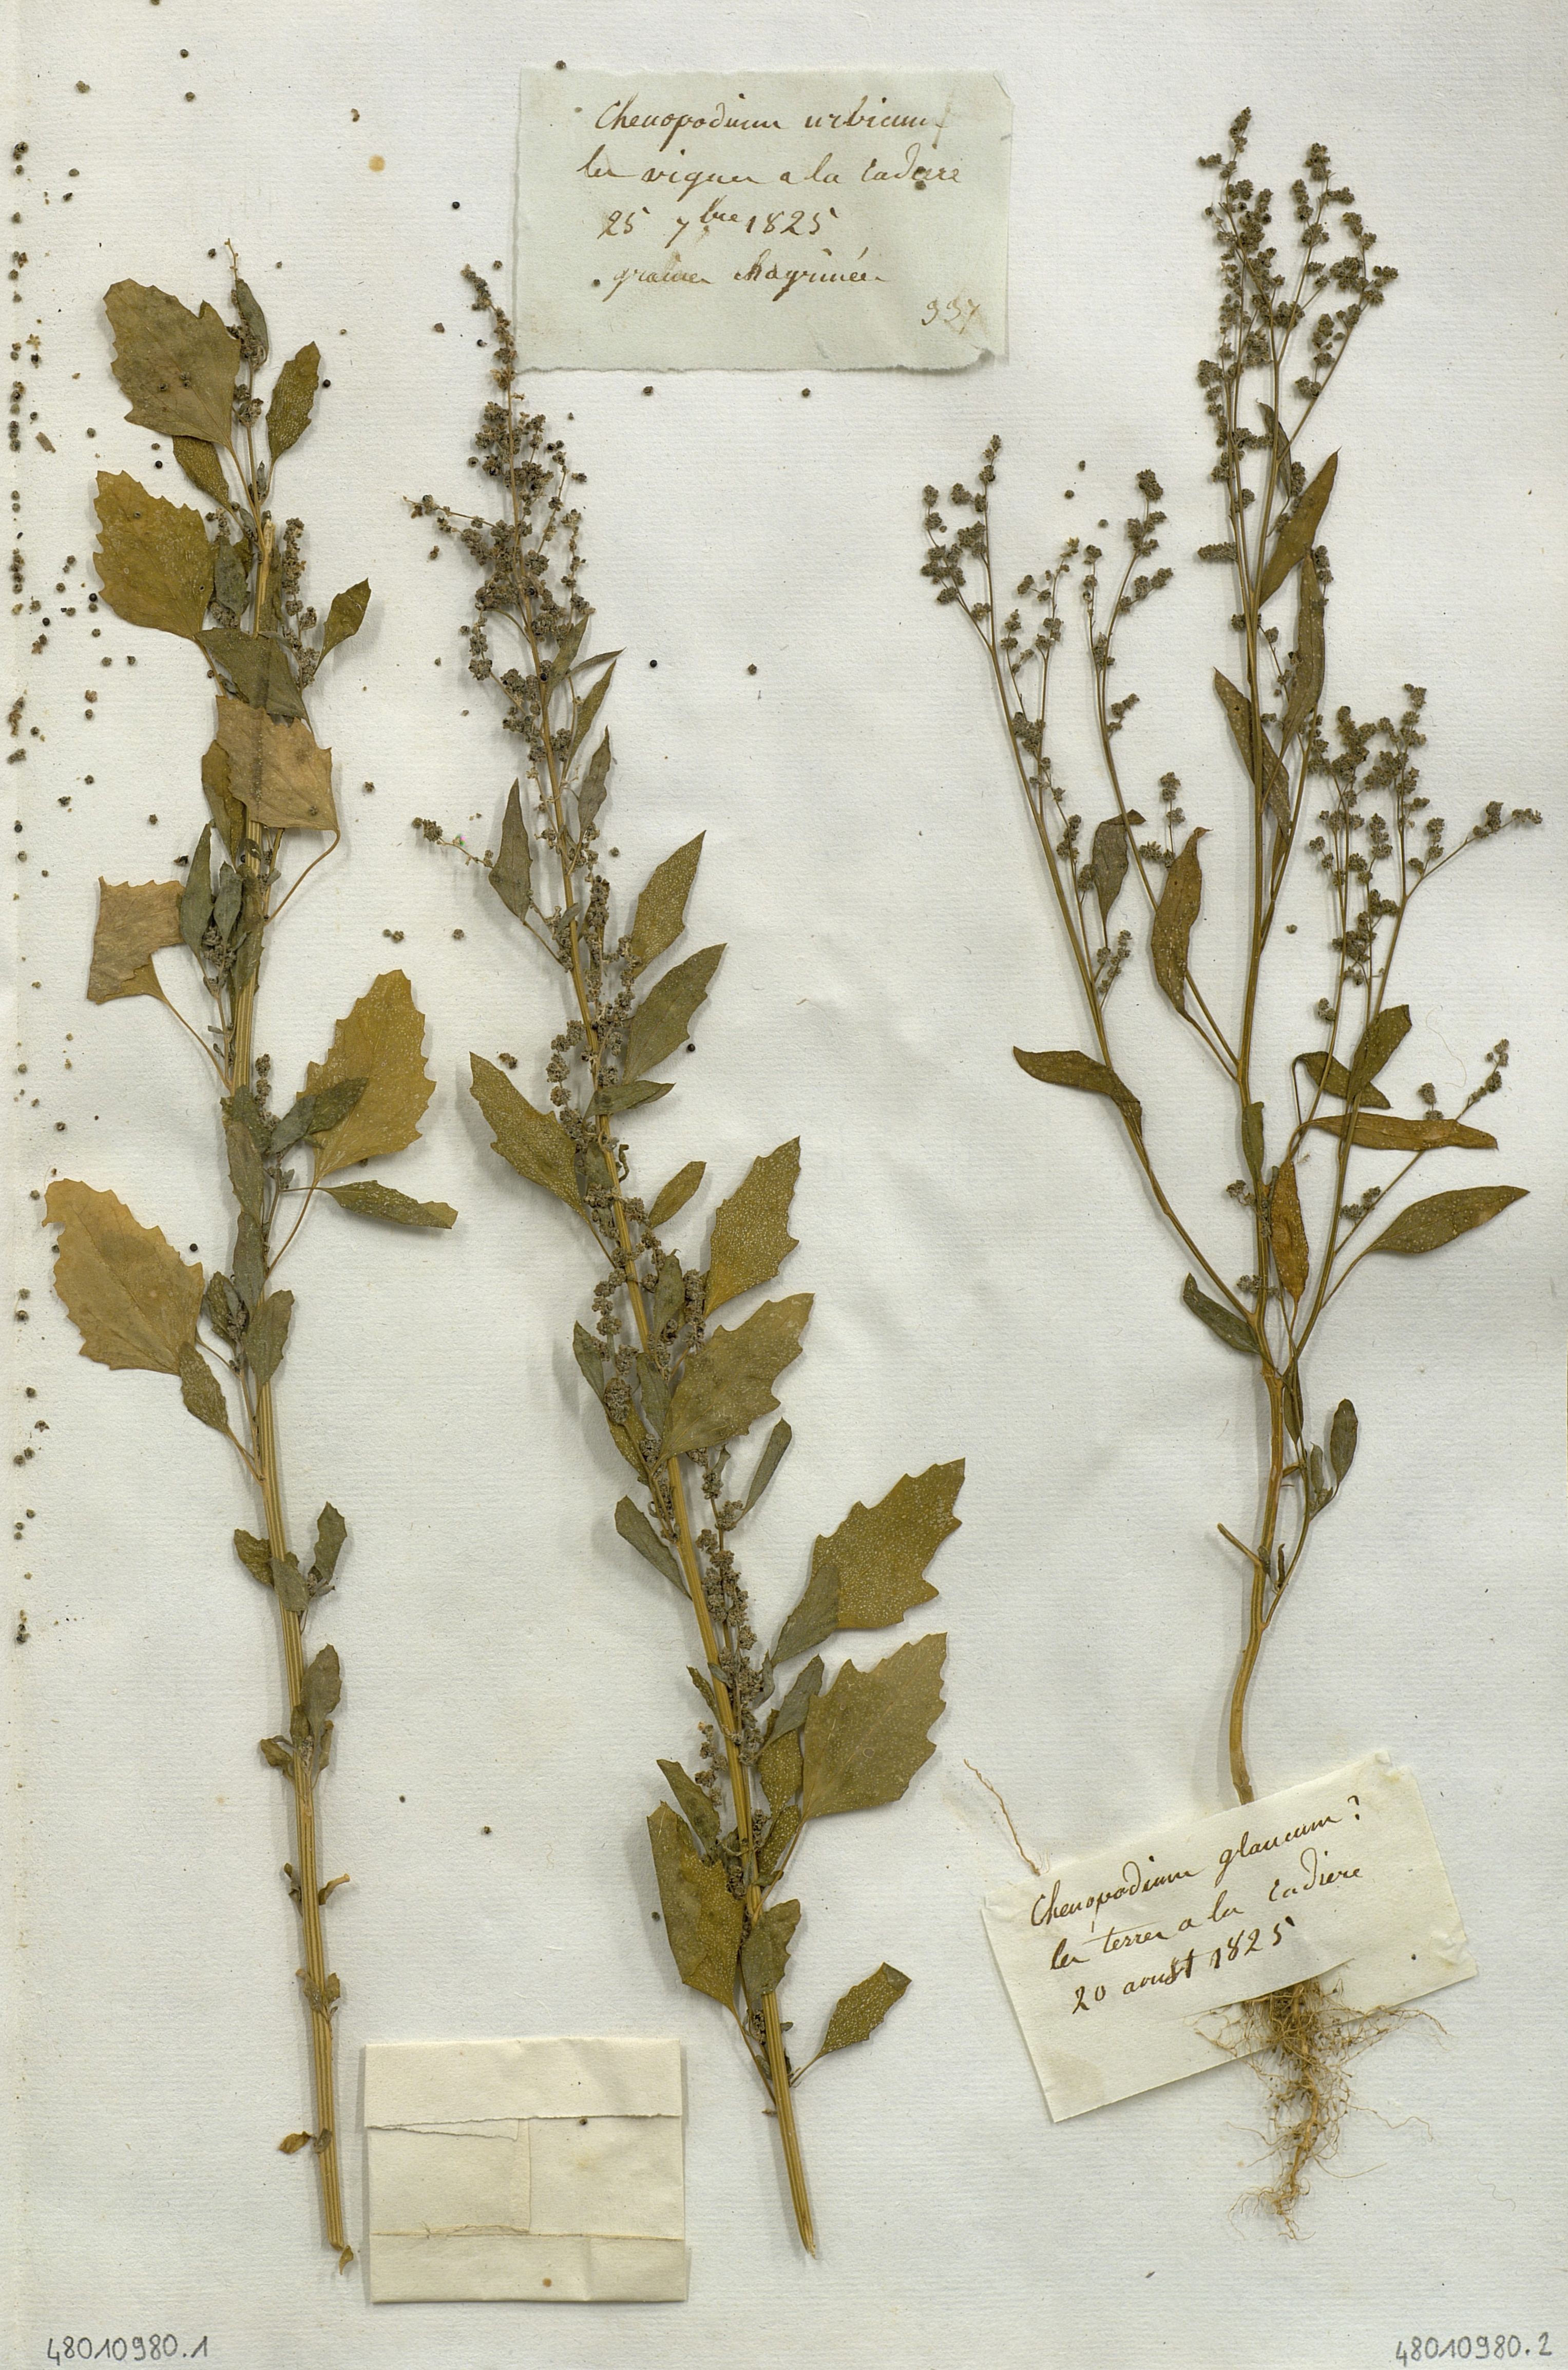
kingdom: Plantae
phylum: Tracheophyta
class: Magnoliopsida
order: Caryophyllales
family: Amaranthaceae
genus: Oxybasis
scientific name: Oxybasis glauca
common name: Glaucous goosefoot
